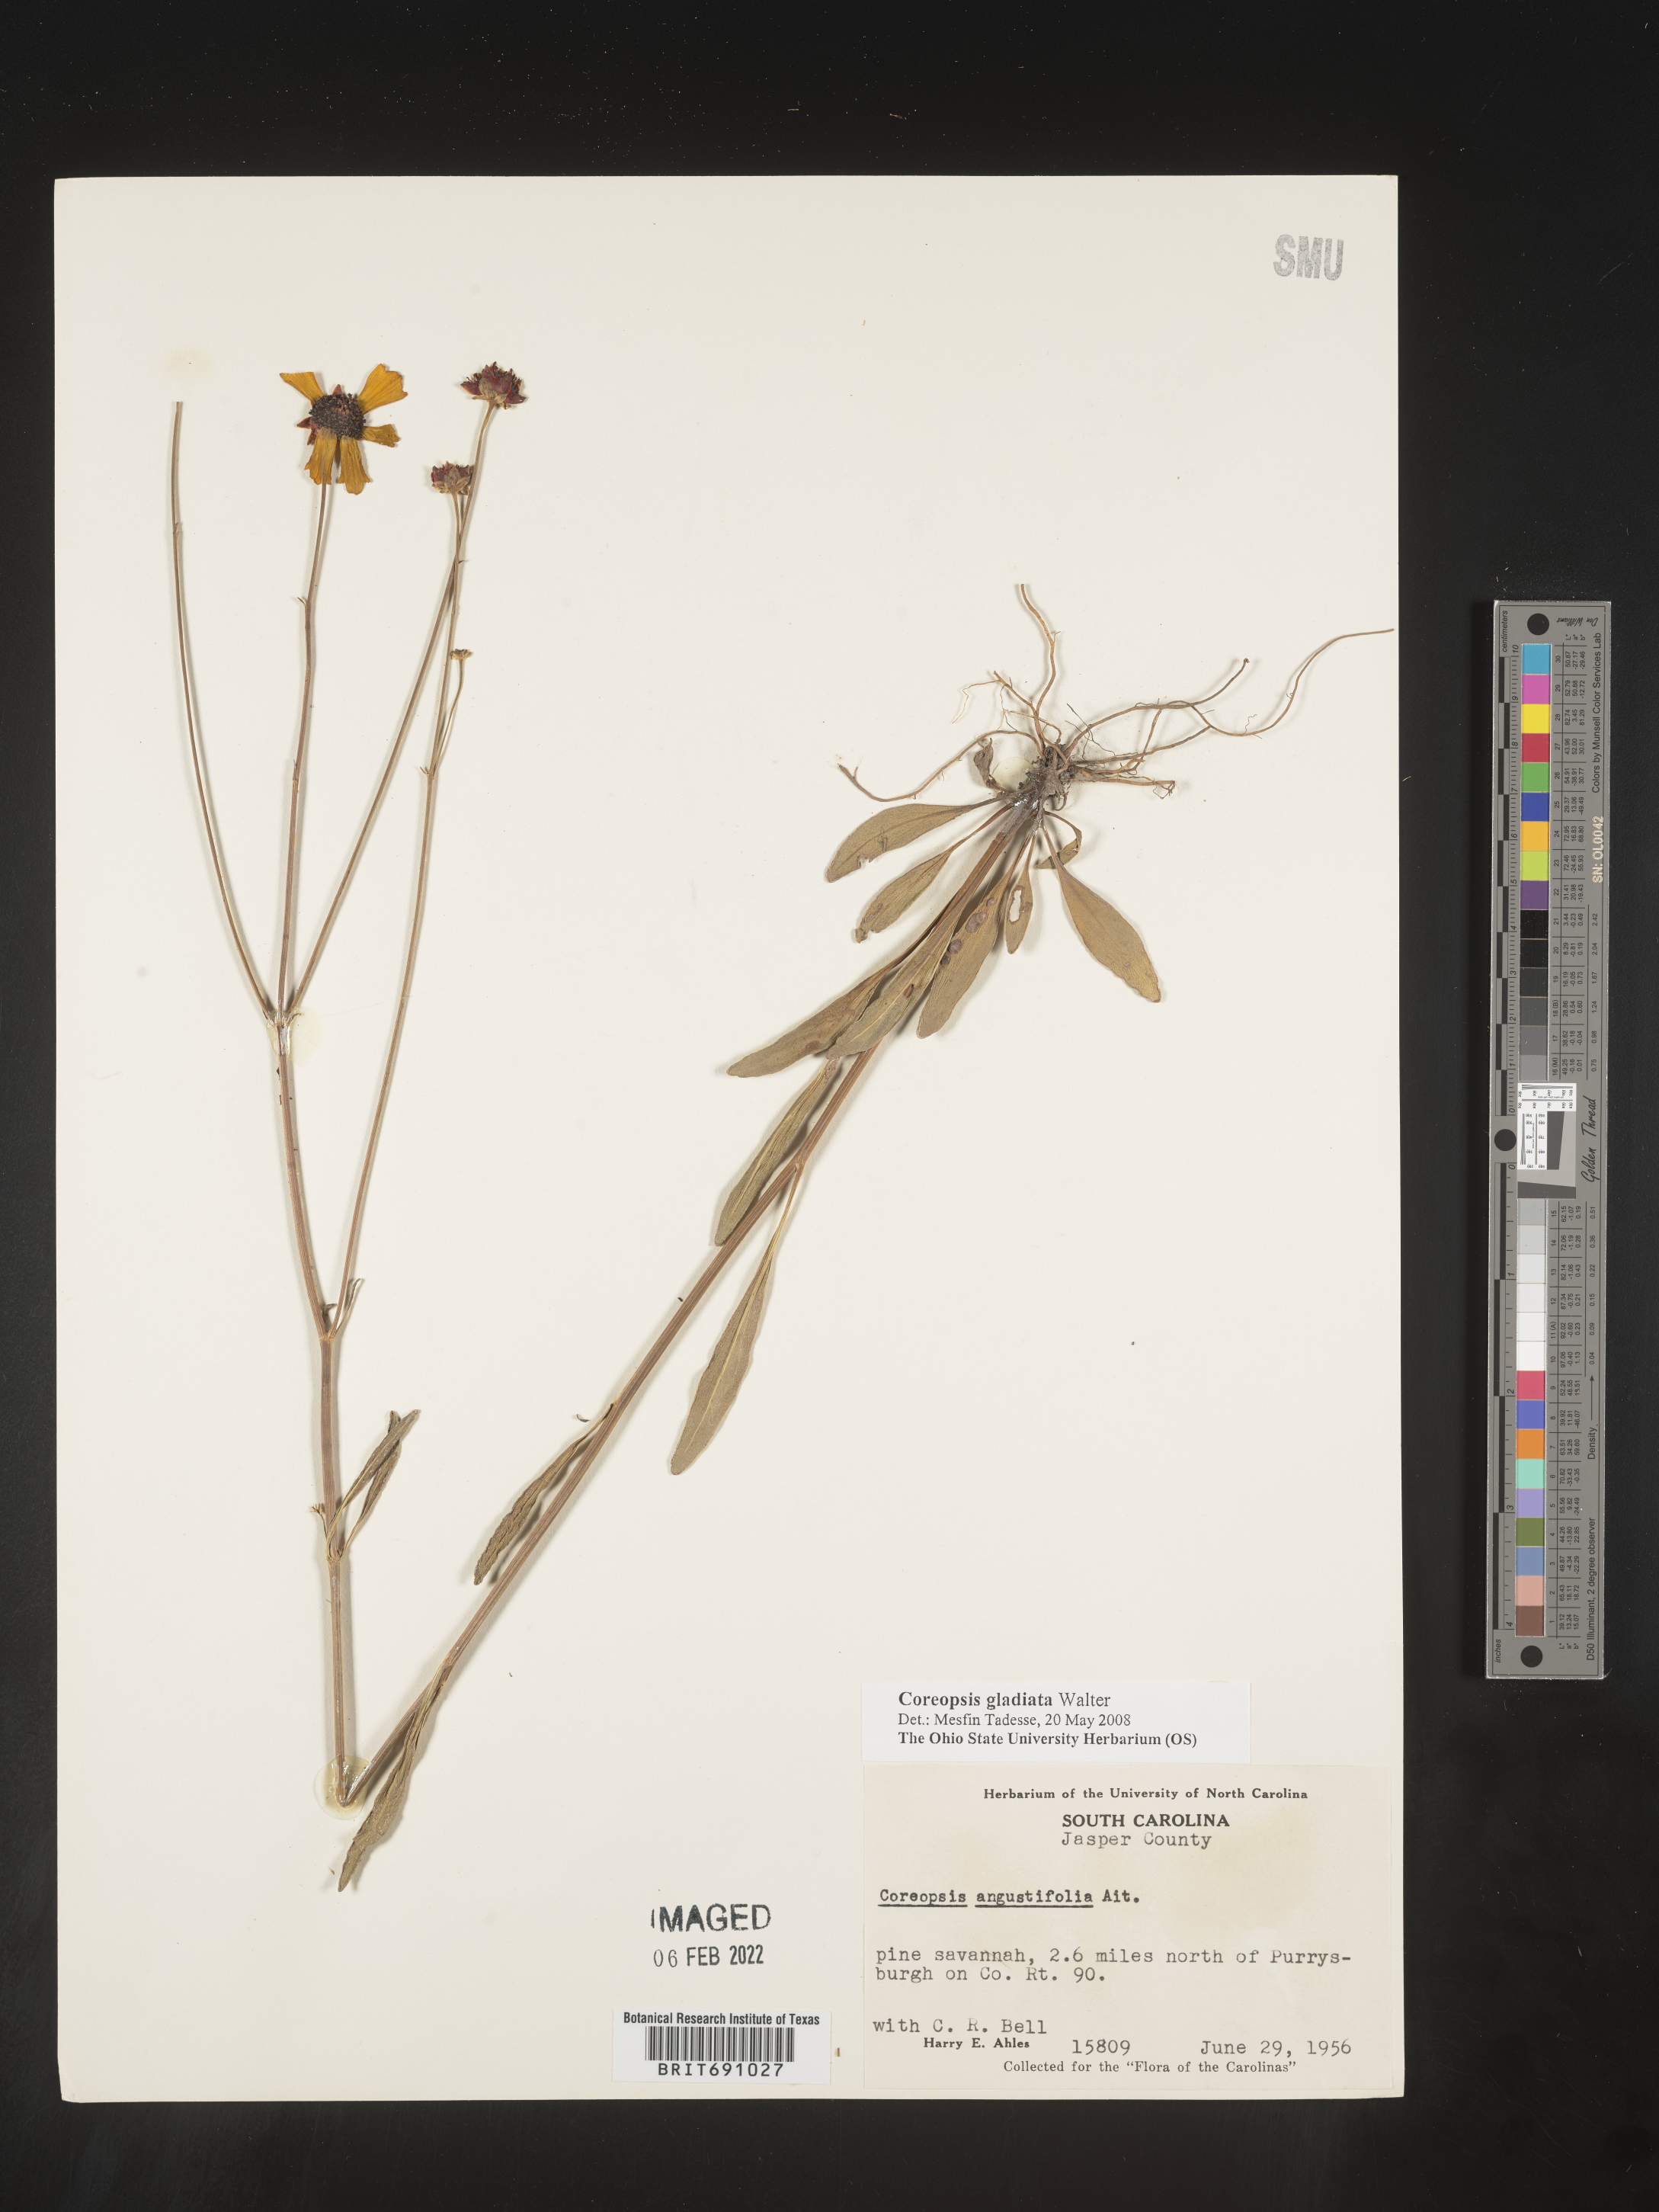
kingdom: Plantae
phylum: Tracheophyta
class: Magnoliopsida
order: Asterales
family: Asteraceae
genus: Coreopsis
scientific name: Coreopsis gladiata
